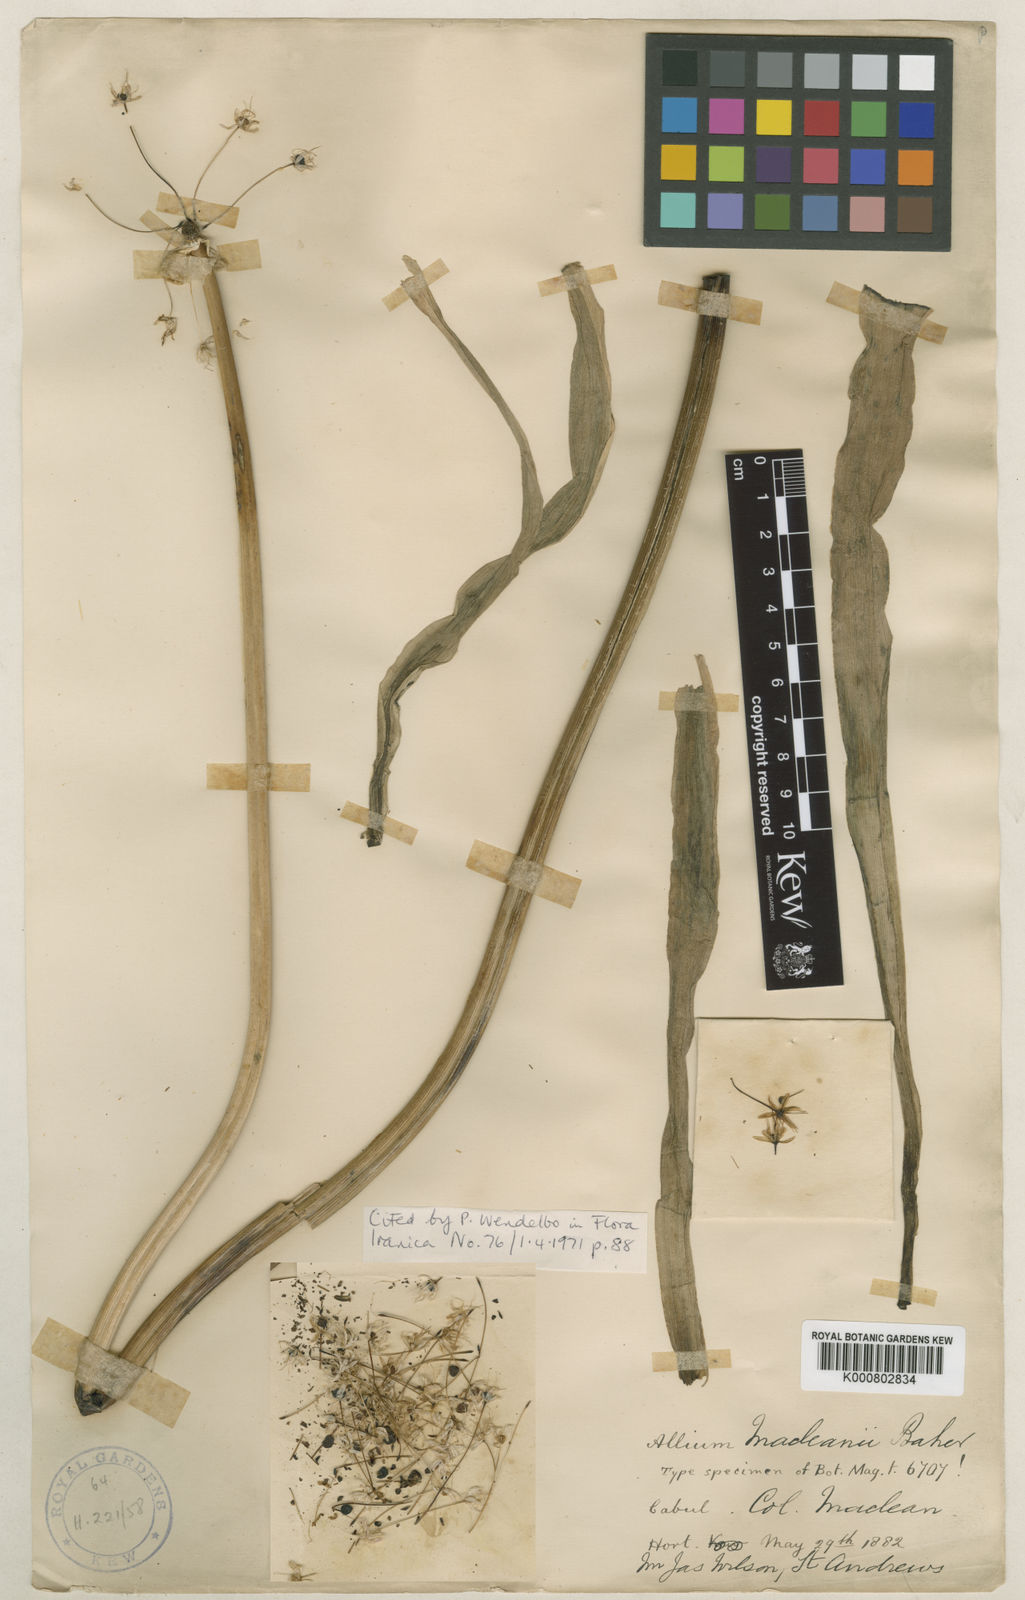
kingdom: Plantae
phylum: Tracheophyta
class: Liliopsida
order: Asparagales
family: Amaryllidaceae
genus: Allium
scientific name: Allium macleanii
